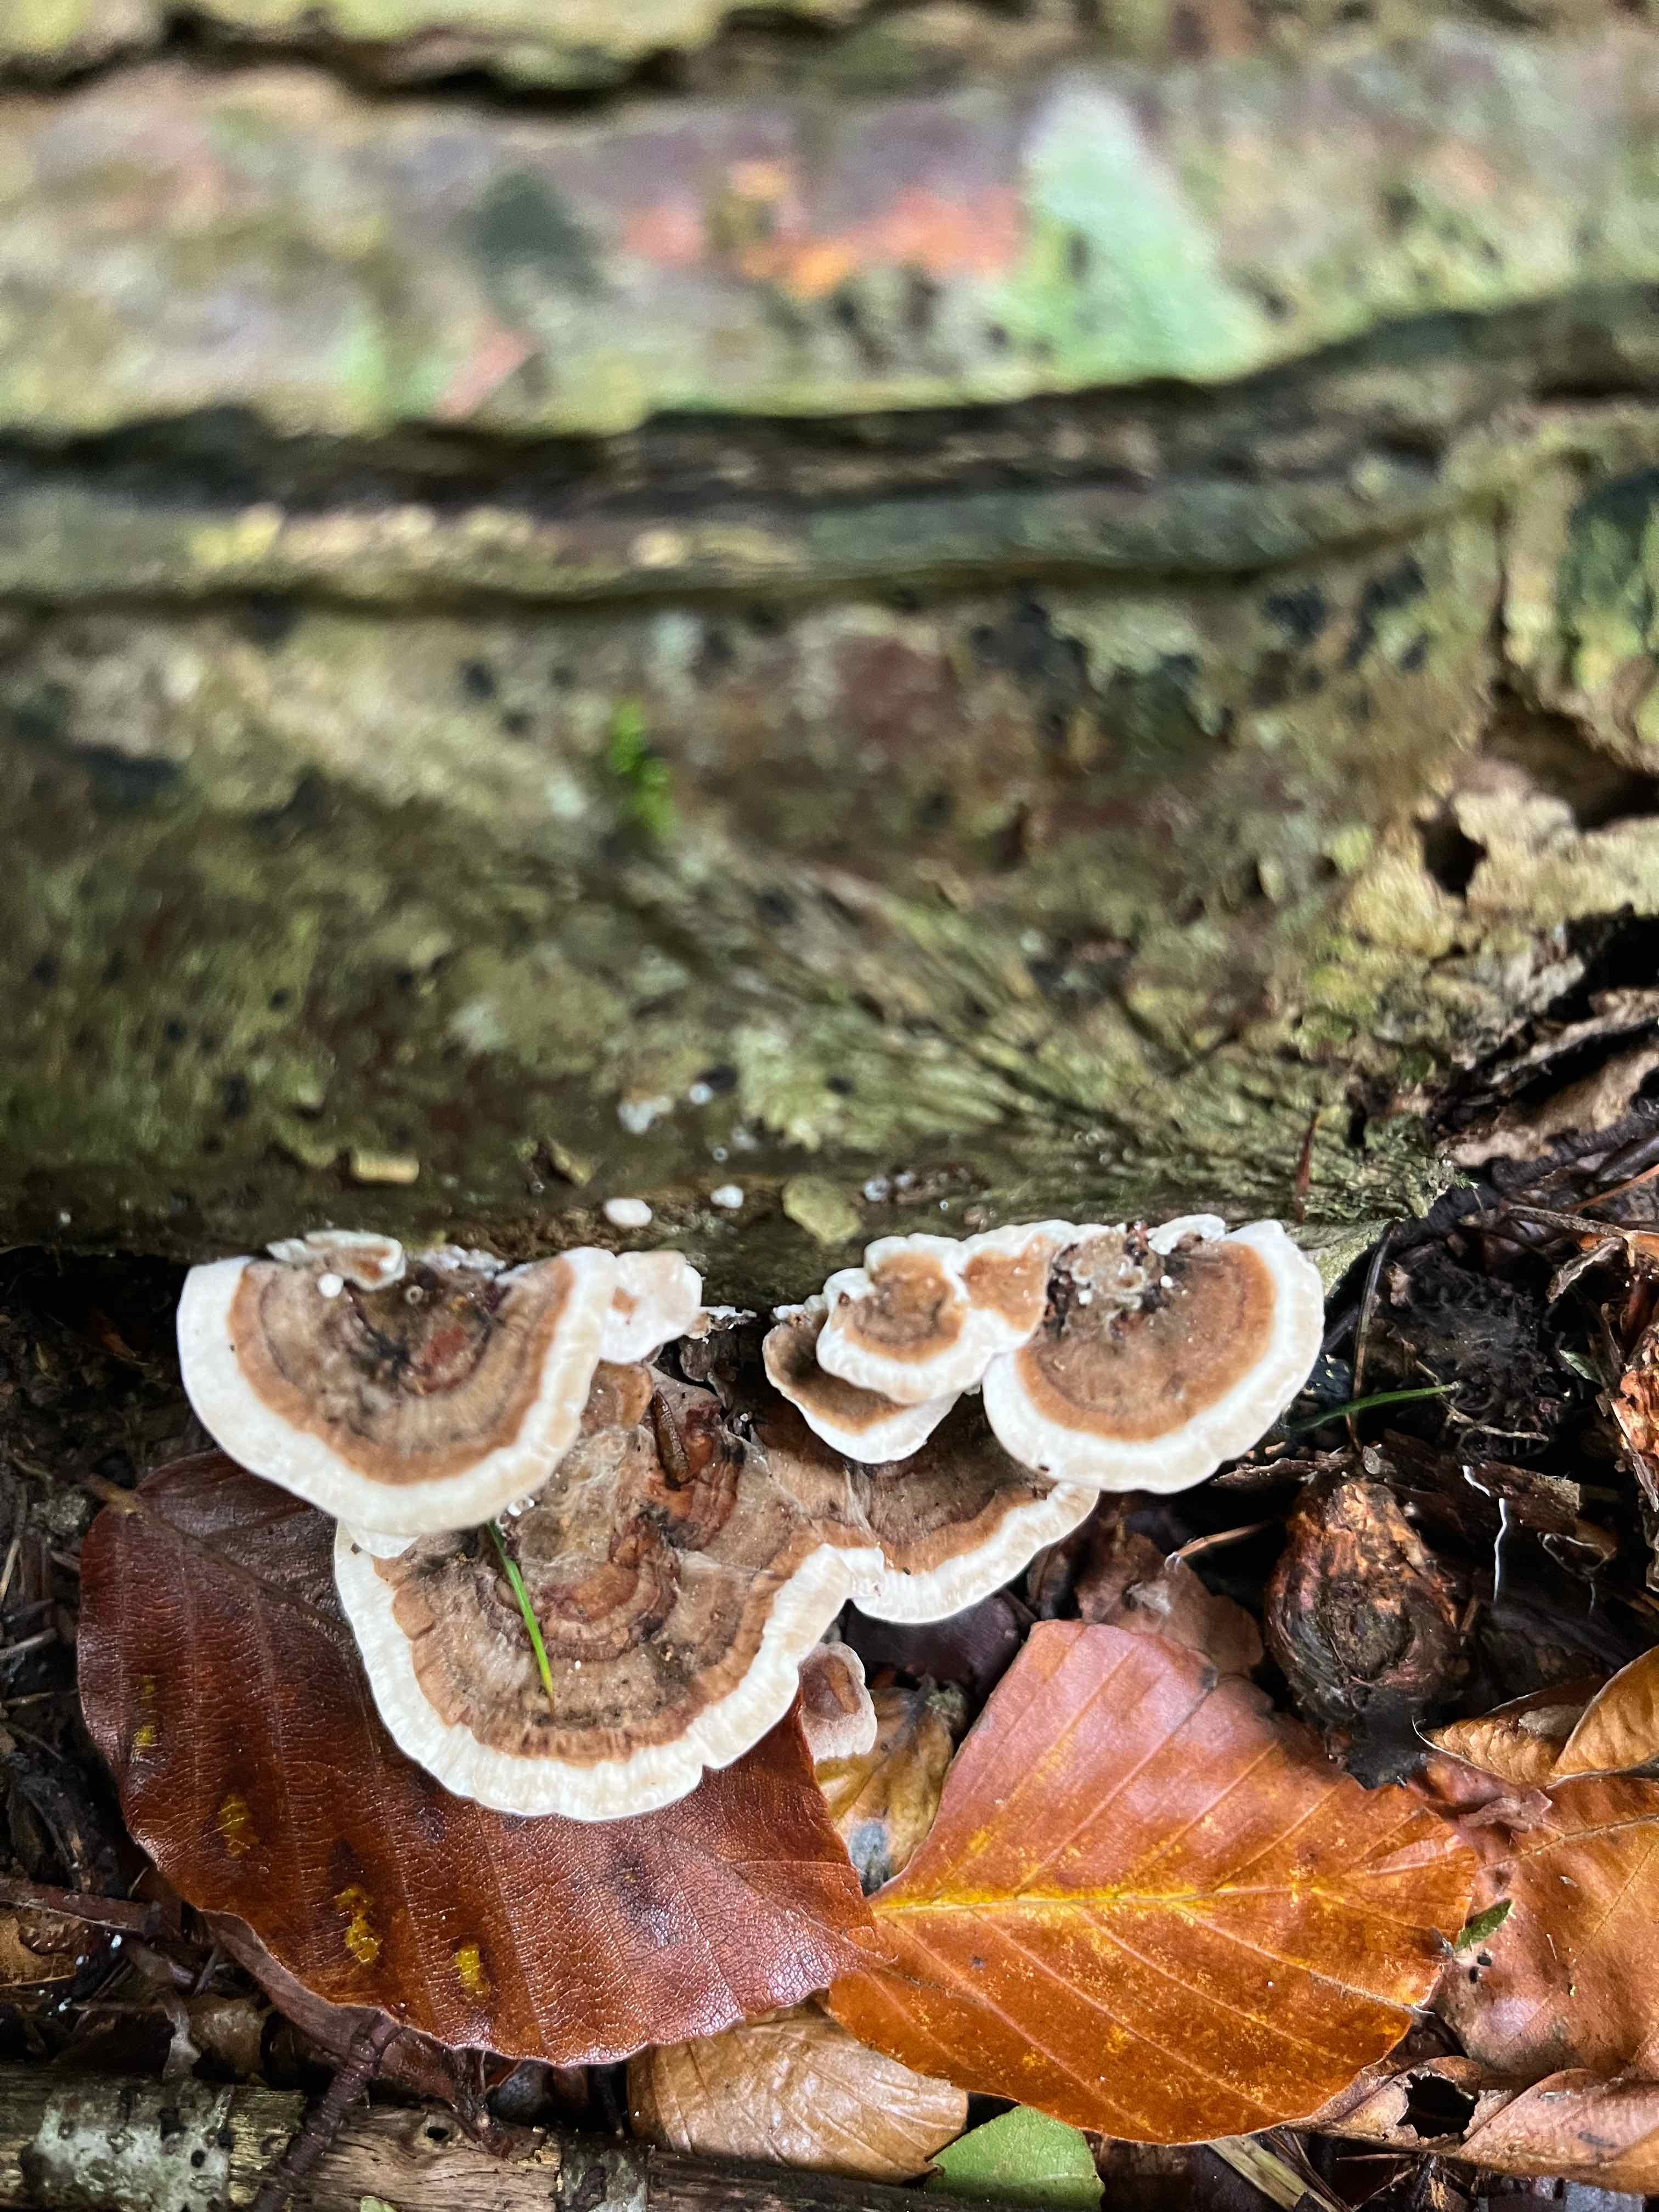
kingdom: Fungi
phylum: Basidiomycota
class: Agaricomycetes
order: Polyporales
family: Polyporaceae
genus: Trametes
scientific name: Trametes versicolor
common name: broget læderporesvamp
